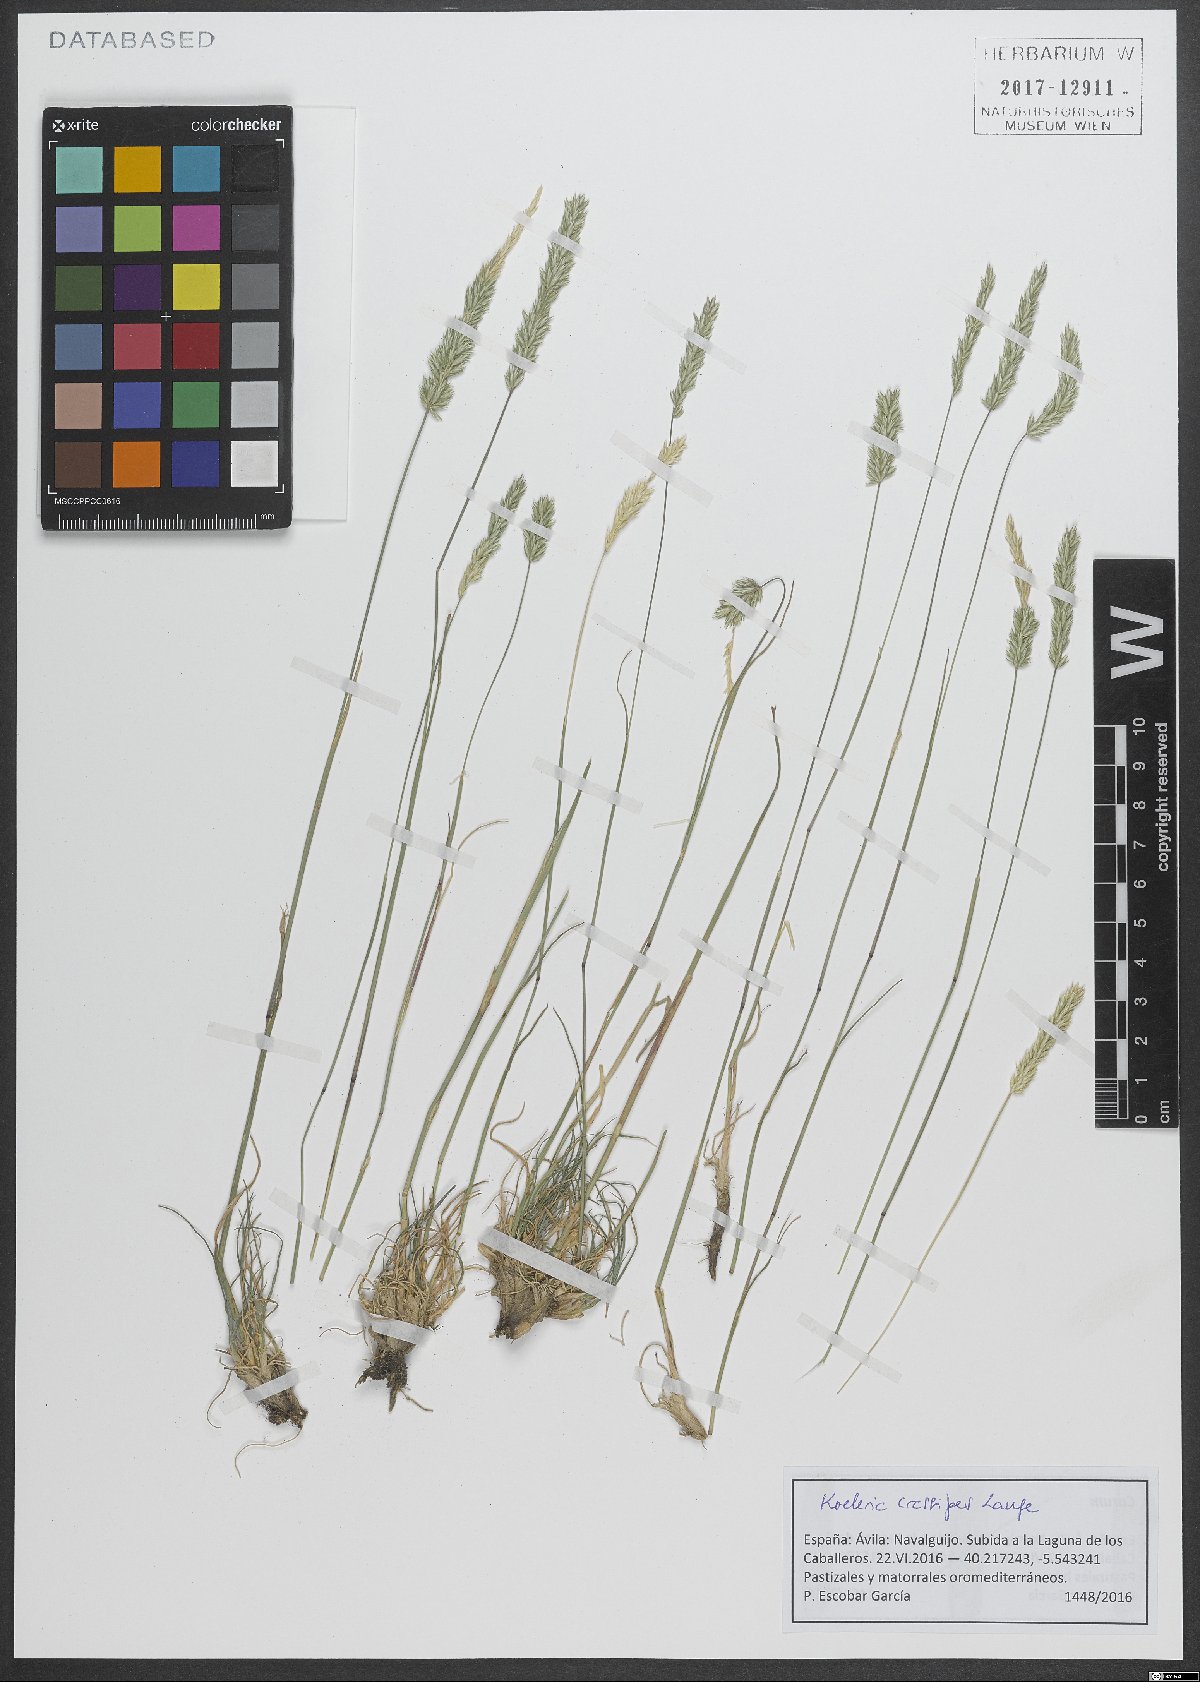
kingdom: Plantae
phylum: Tracheophyta
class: Liliopsida
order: Poales
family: Poaceae
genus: Koeleria
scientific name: Koeleria crassipes
